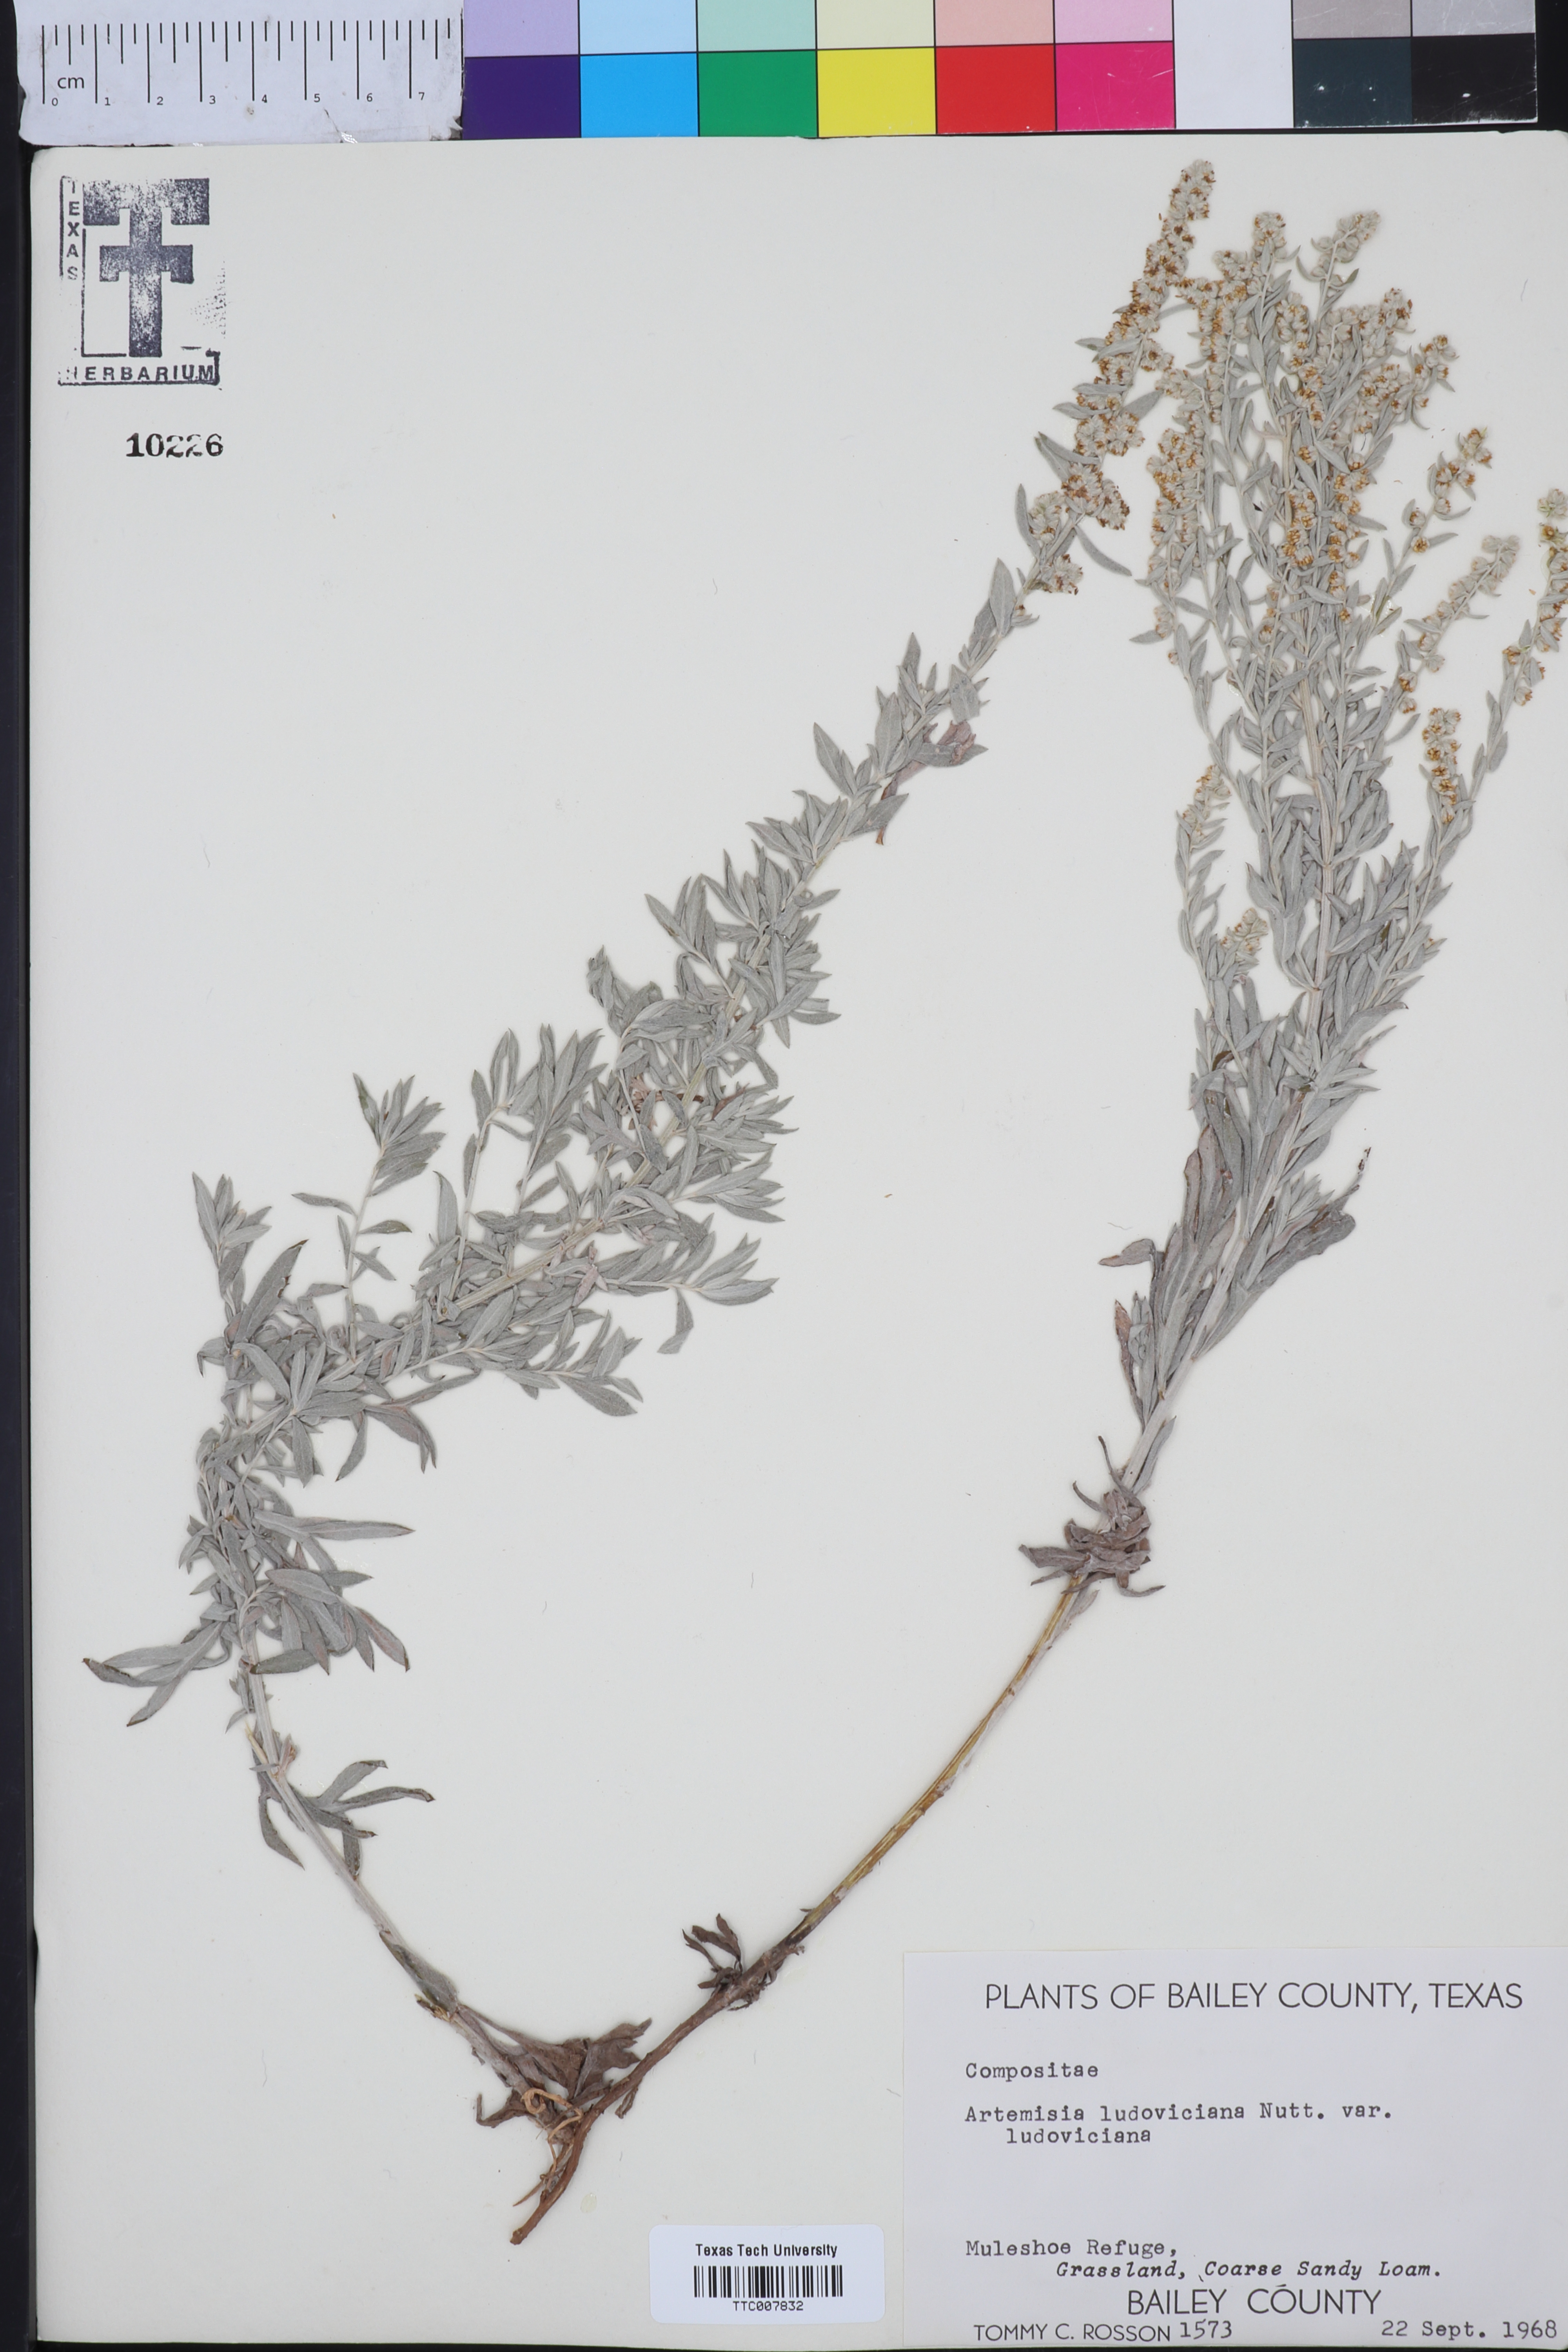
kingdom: Plantae
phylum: Tracheophyta
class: Magnoliopsida
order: Asterales
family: Asteraceae
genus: Artemisia
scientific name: Artemisia ludoviciana
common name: Western mugwort
